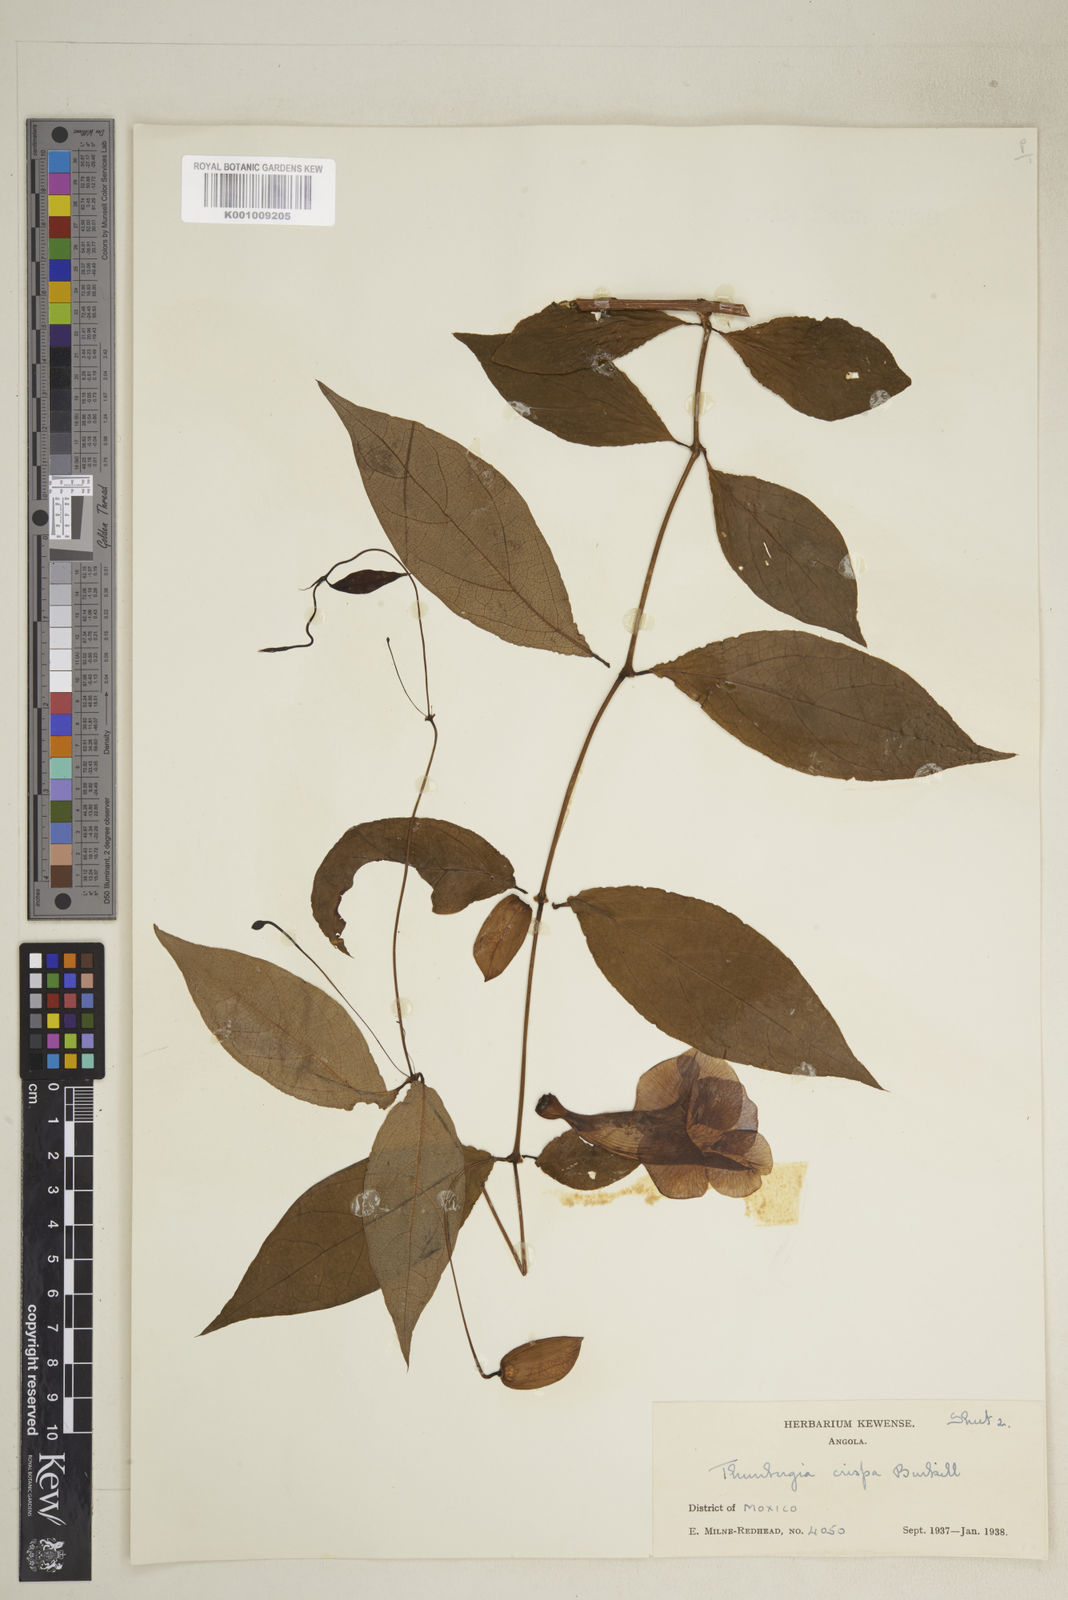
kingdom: Plantae
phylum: Tracheophyta
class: Magnoliopsida
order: Lamiales
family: Acanthaceae
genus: Thunbergia
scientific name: Thunbergia crispa
